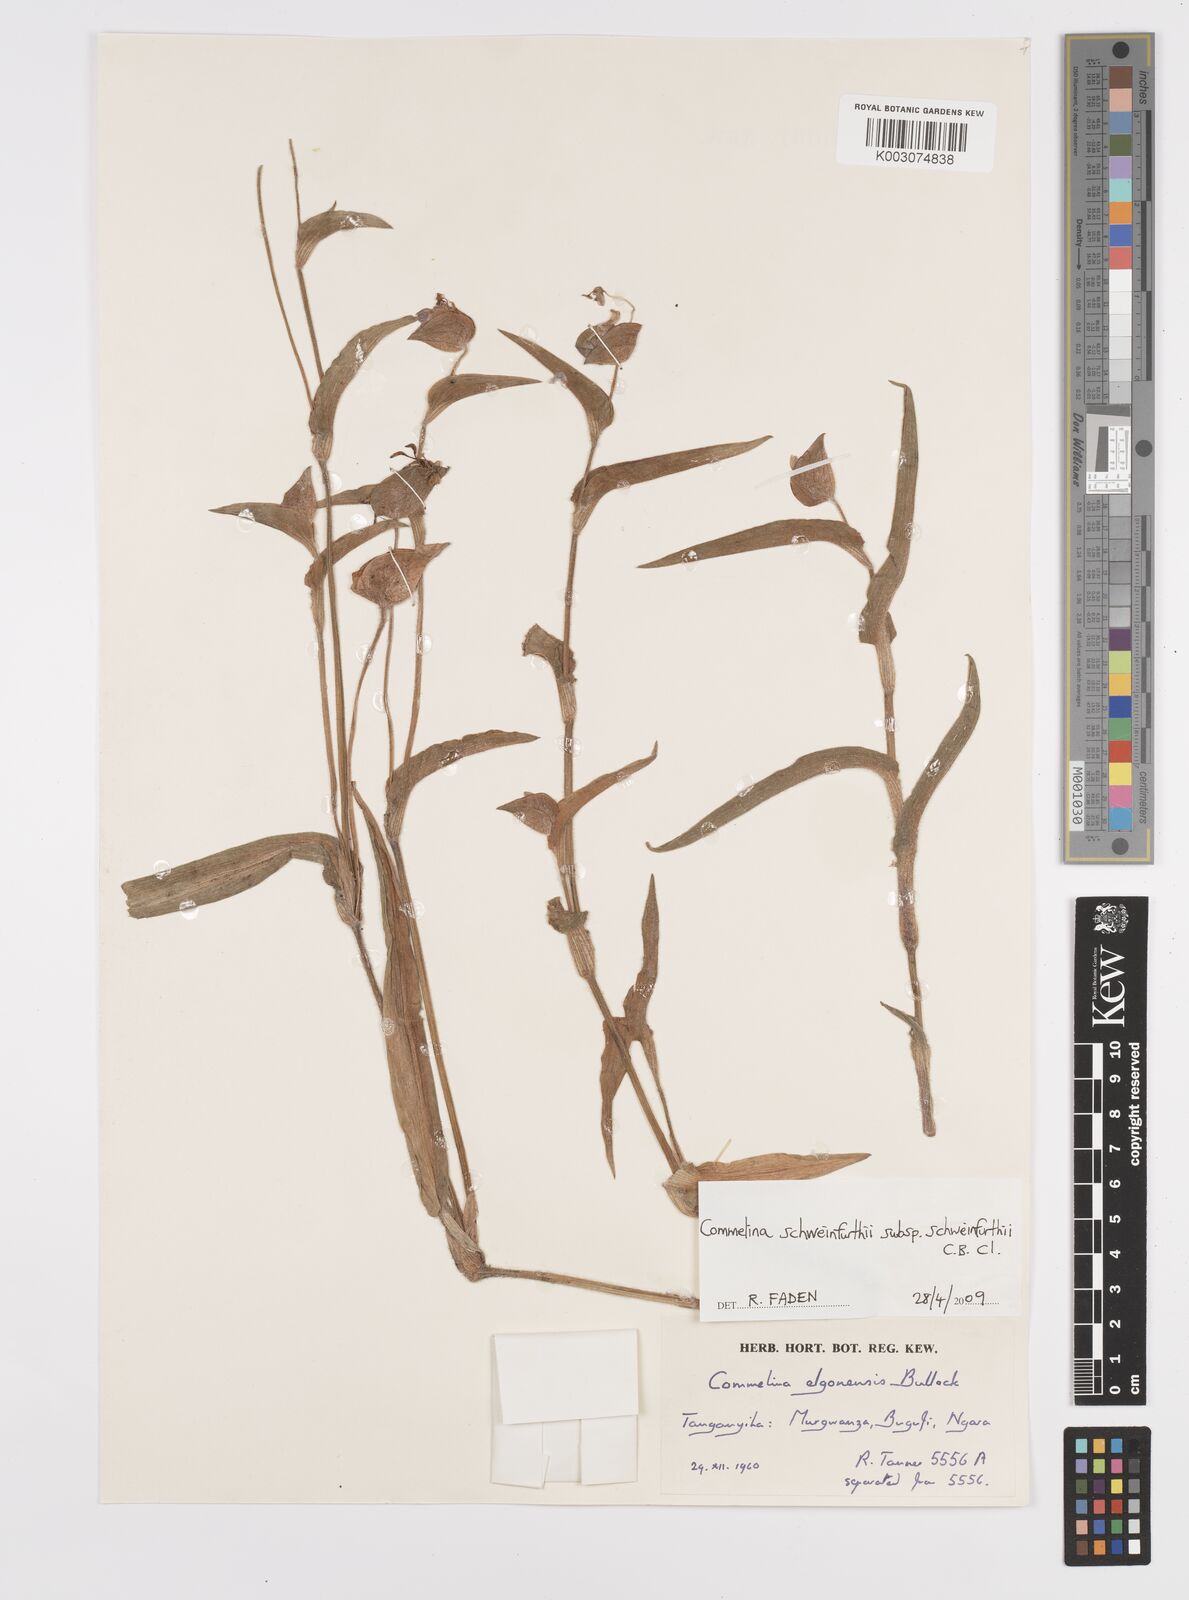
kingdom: Plantae
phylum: Tracheophyta
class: Liliopsida
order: Commelinales
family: Commelinaceae
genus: Commelina
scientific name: Commelina schweinfurthii
